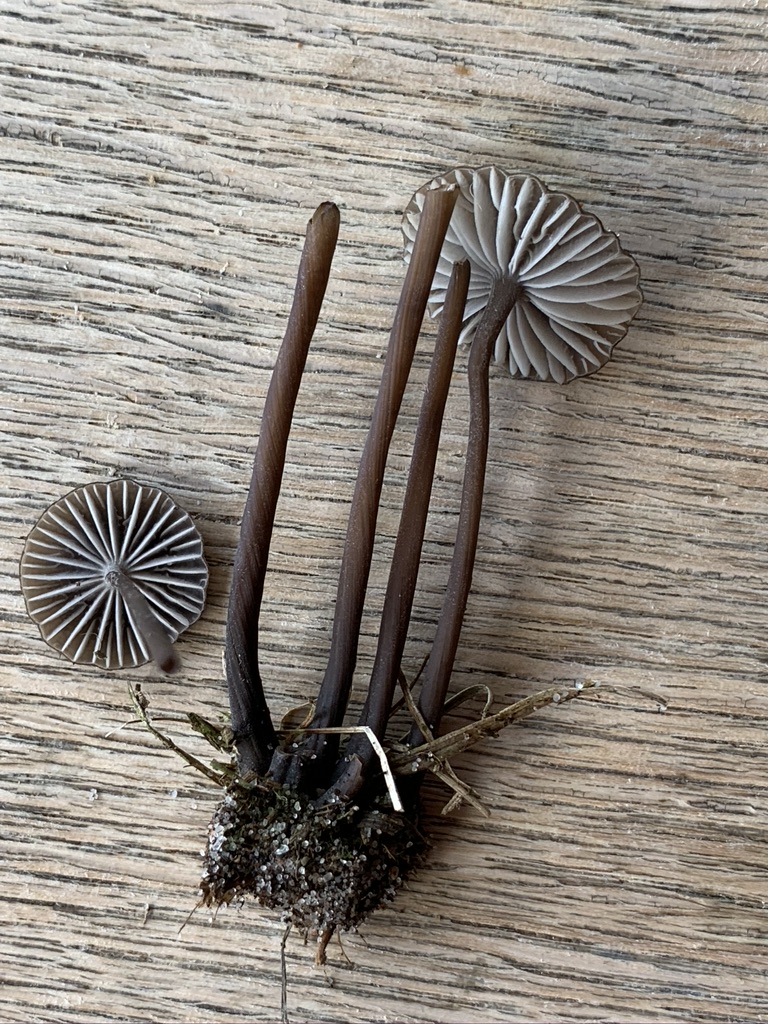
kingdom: Fungi
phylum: Basidiomycota
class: Agaricomycetes
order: Agaricales
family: Mycenaceae
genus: Mycena
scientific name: Mycena galopus
